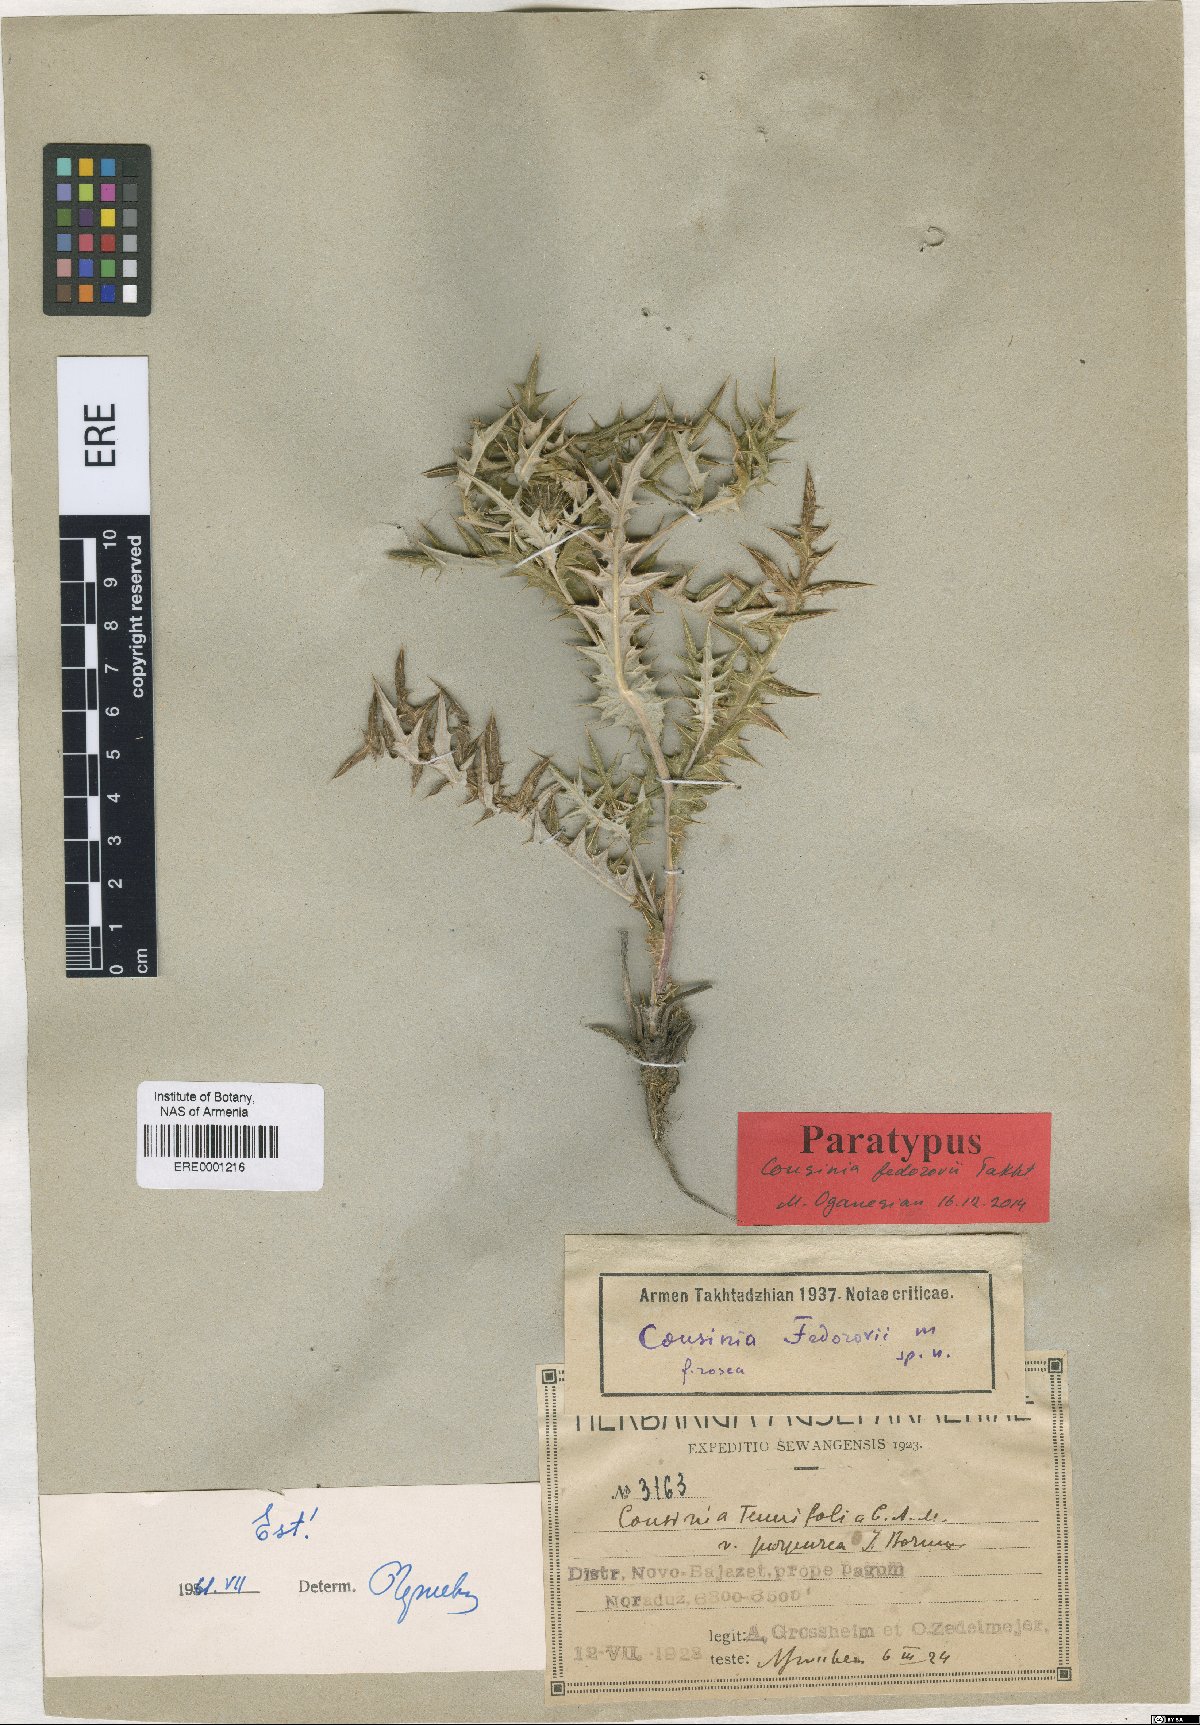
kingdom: Plantae
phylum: Tracheophyta
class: Magnoliopsida
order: Asterales
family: Asteraceae
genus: Cousinia
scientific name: Cousinia fedorovii
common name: Fedorov's cousinia
